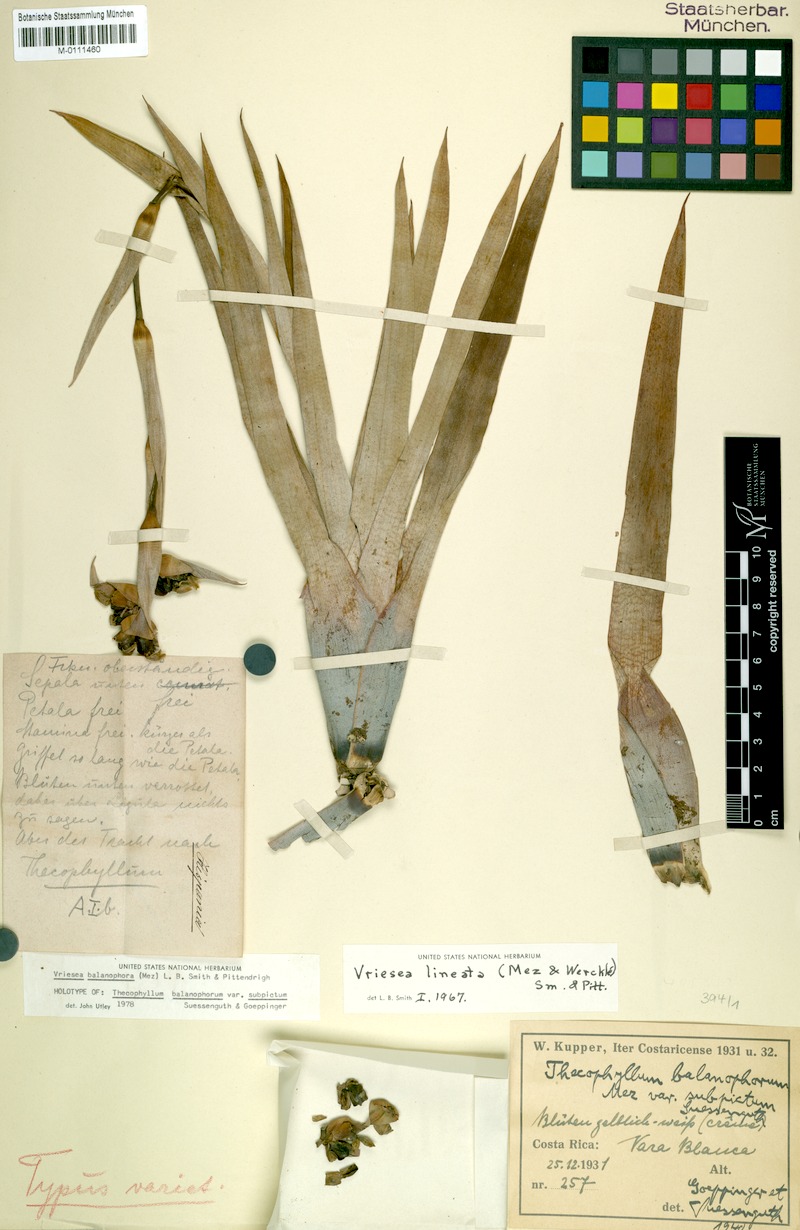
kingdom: Plantae
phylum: Tracheophyta
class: Liliopsida
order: Poales
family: Bromeliaceae
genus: Werauhia
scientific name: Werauhia balanophora
